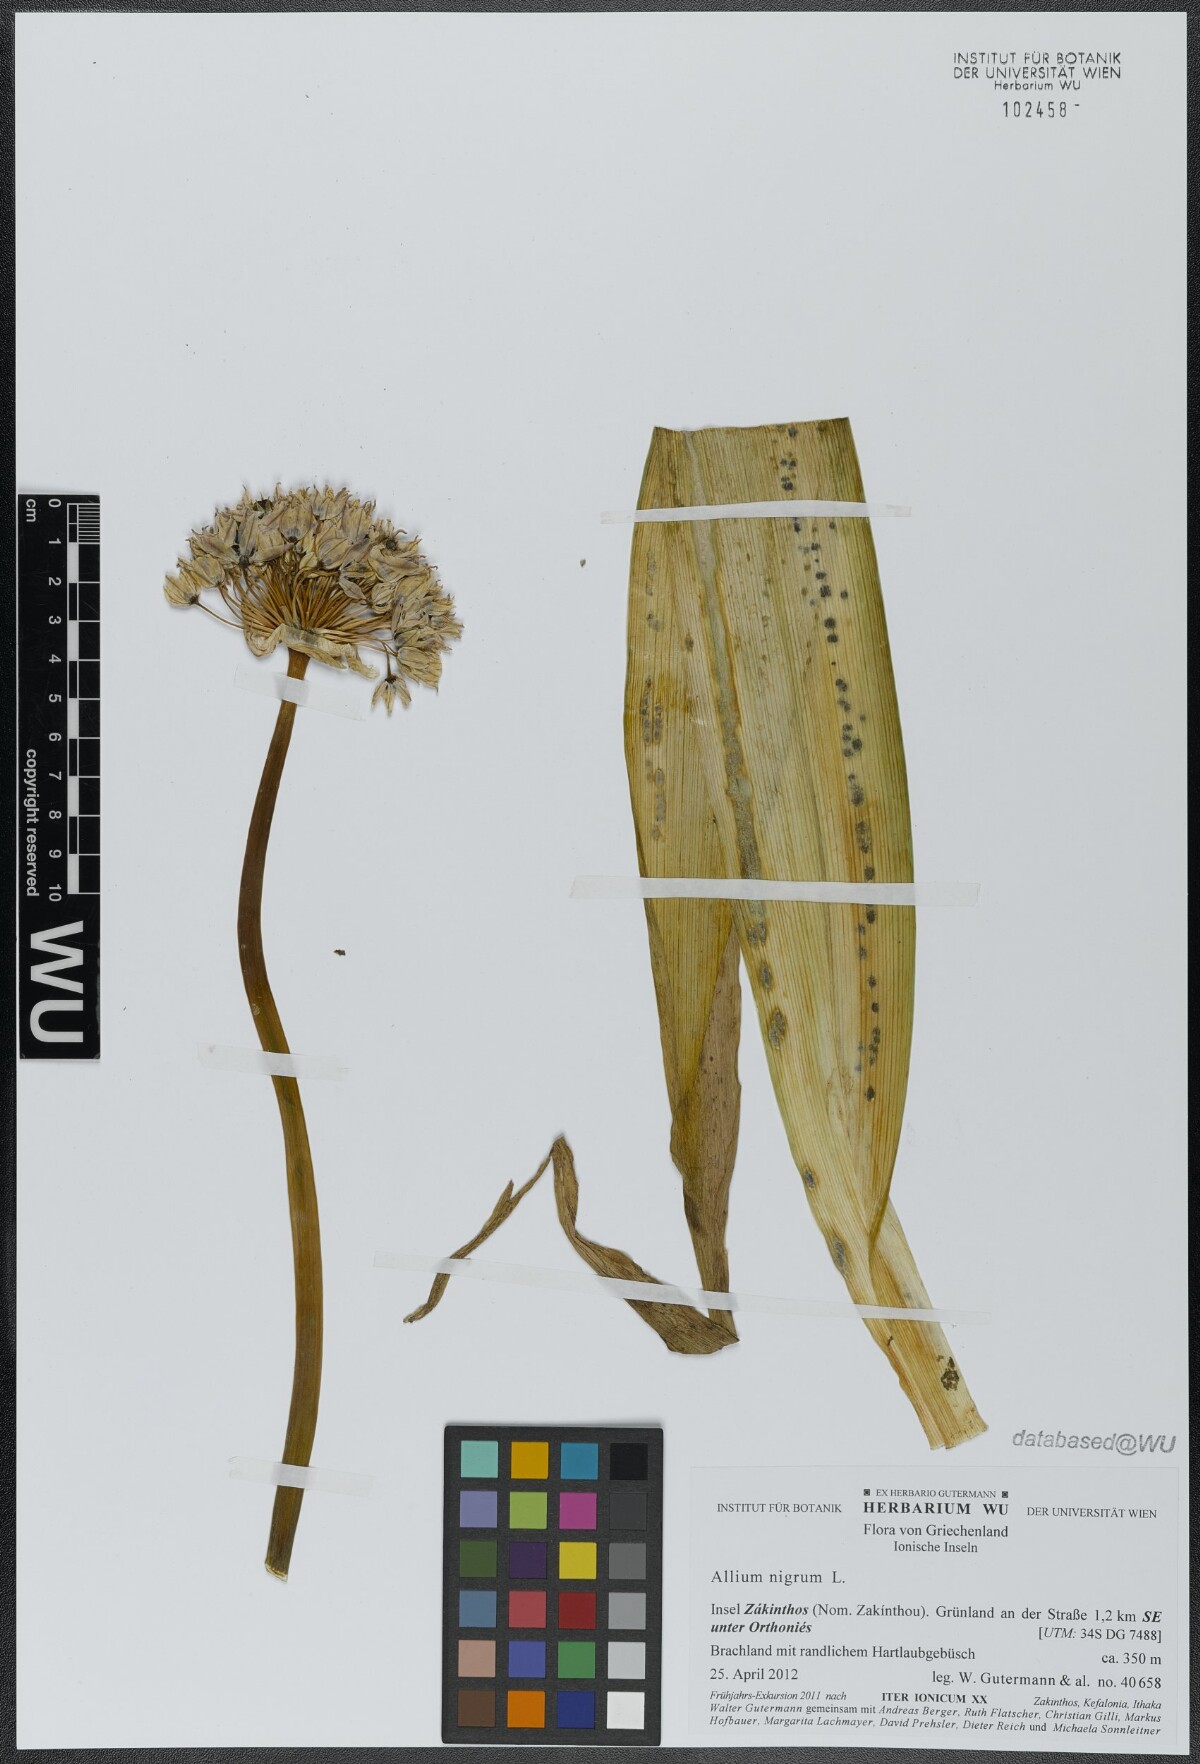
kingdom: Plantae
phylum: Tracheophyta
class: Liliopsida
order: Asparagales
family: Amaryllidaceae
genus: Allium
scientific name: Allium nigrum
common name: Black garlic
